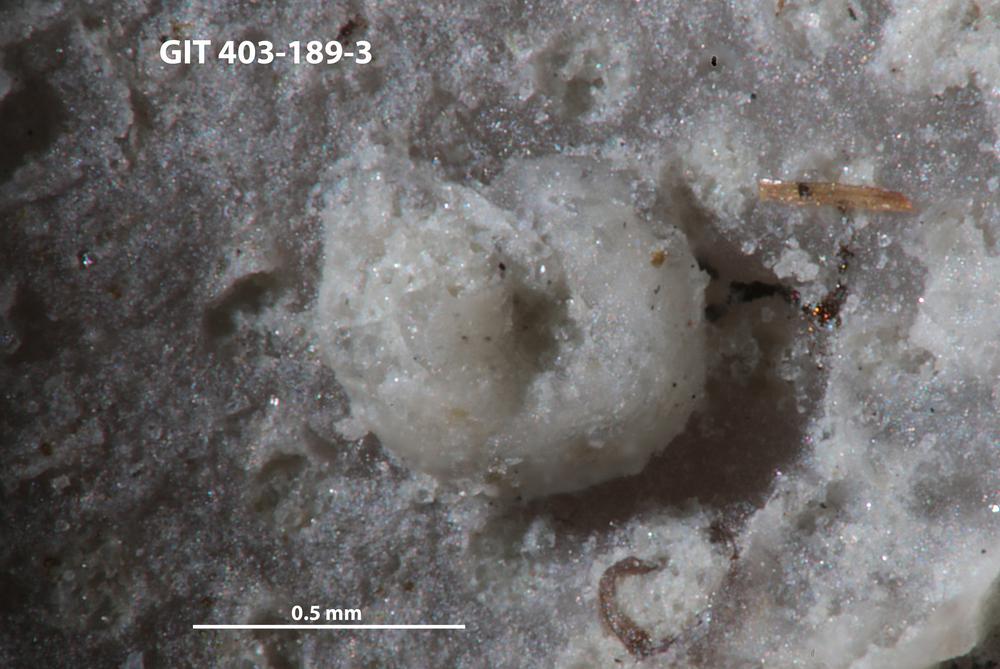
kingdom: Animalia
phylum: Mollusca
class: Cricoconarida
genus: Palaeoconchus
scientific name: Palaeoconchus
